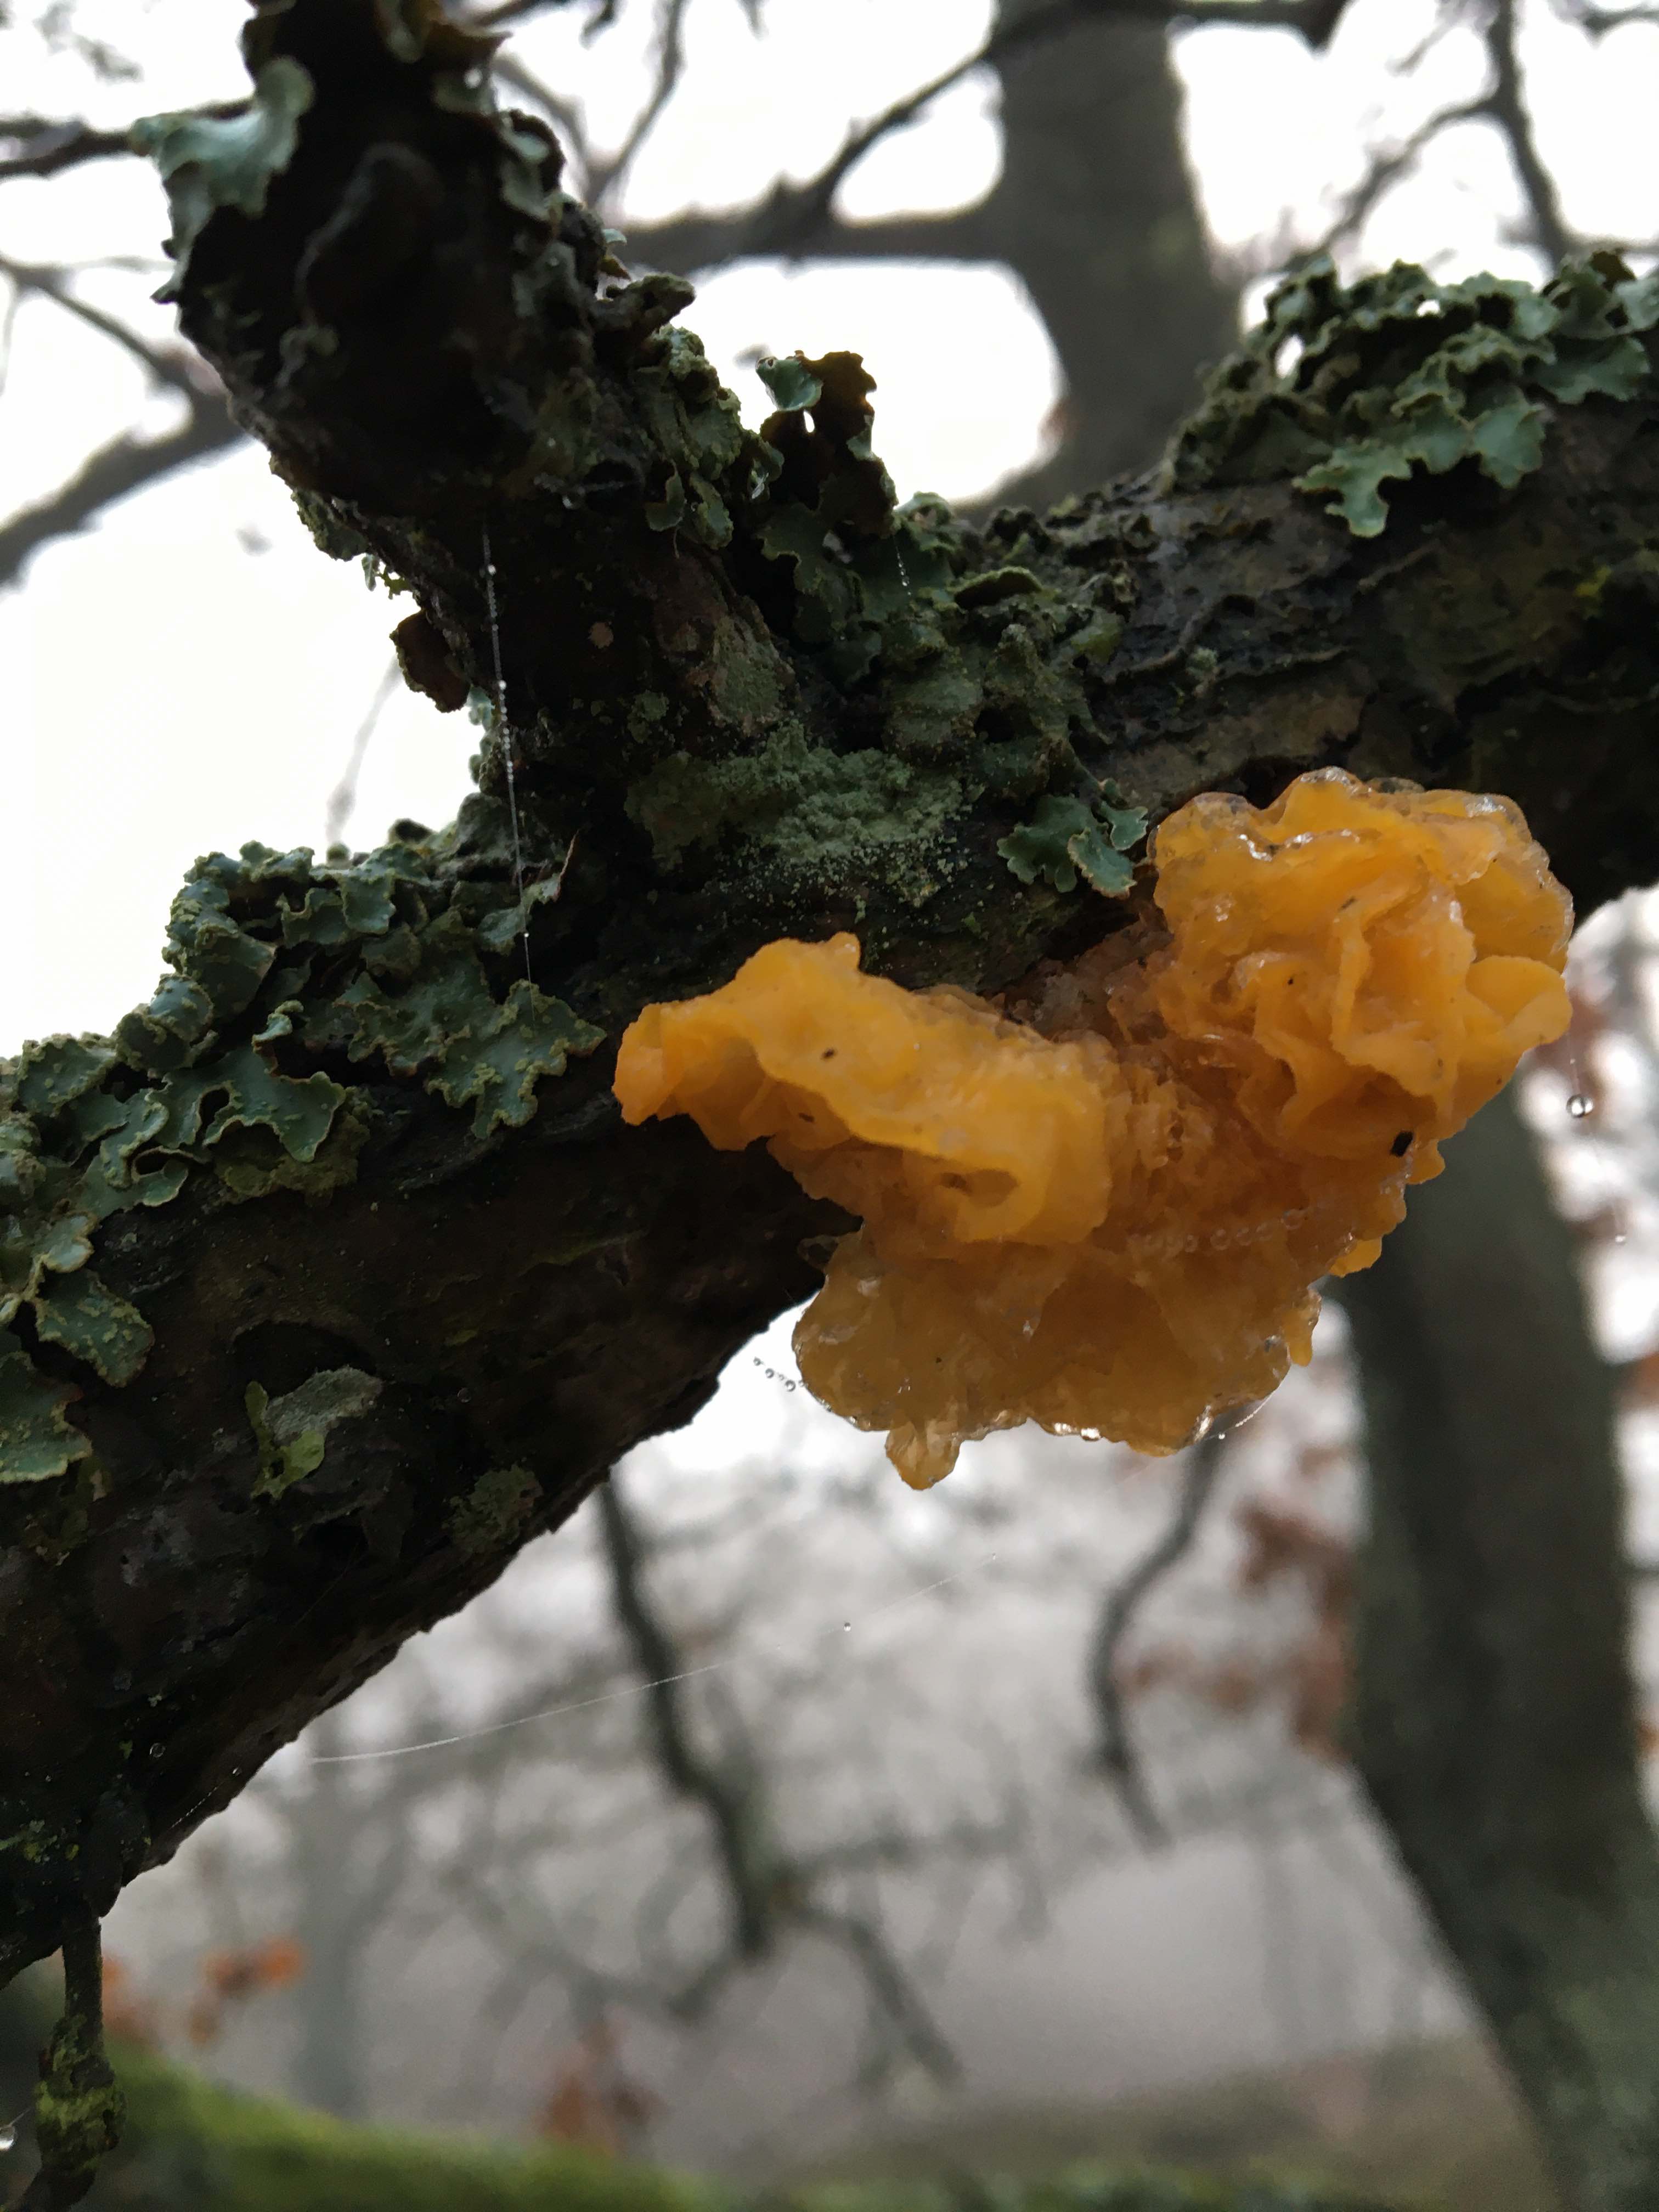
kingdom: Fungi
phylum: Basidiomycota
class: Tremellomycetes
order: Tremellales
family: Tremellaceae
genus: Tremella
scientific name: Tremella mesenterica
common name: gul bævresvamp
